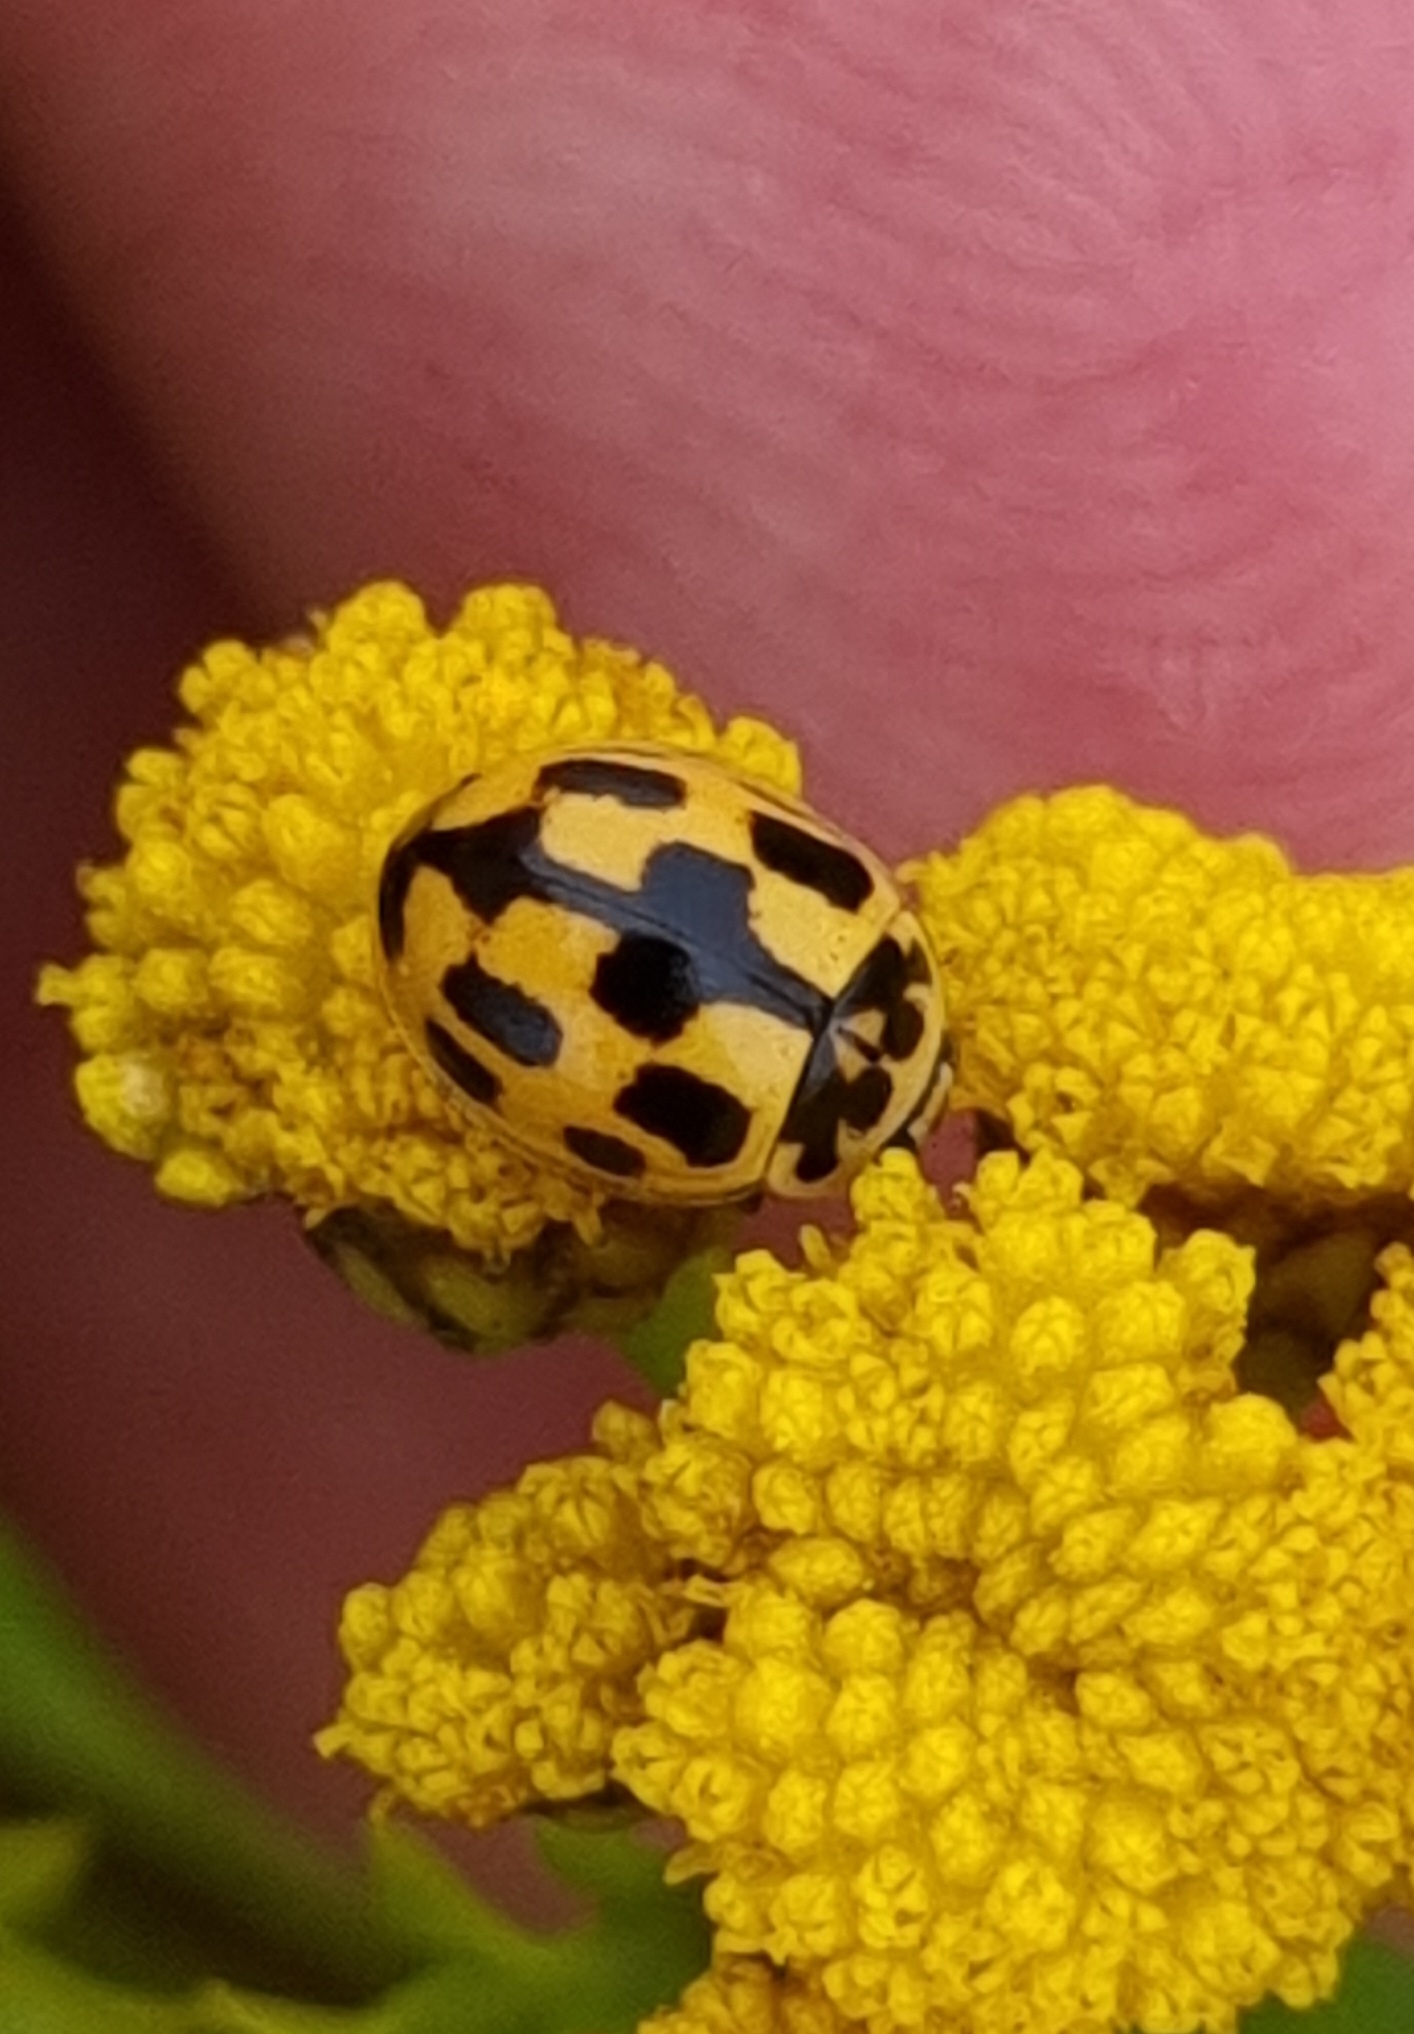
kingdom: Animalia
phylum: Arthropoda
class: Insecta
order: Coleoptera
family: Coccinellidae
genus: Propylaea
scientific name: Propylaea quatuordecimpunctata
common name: Skakbræt
